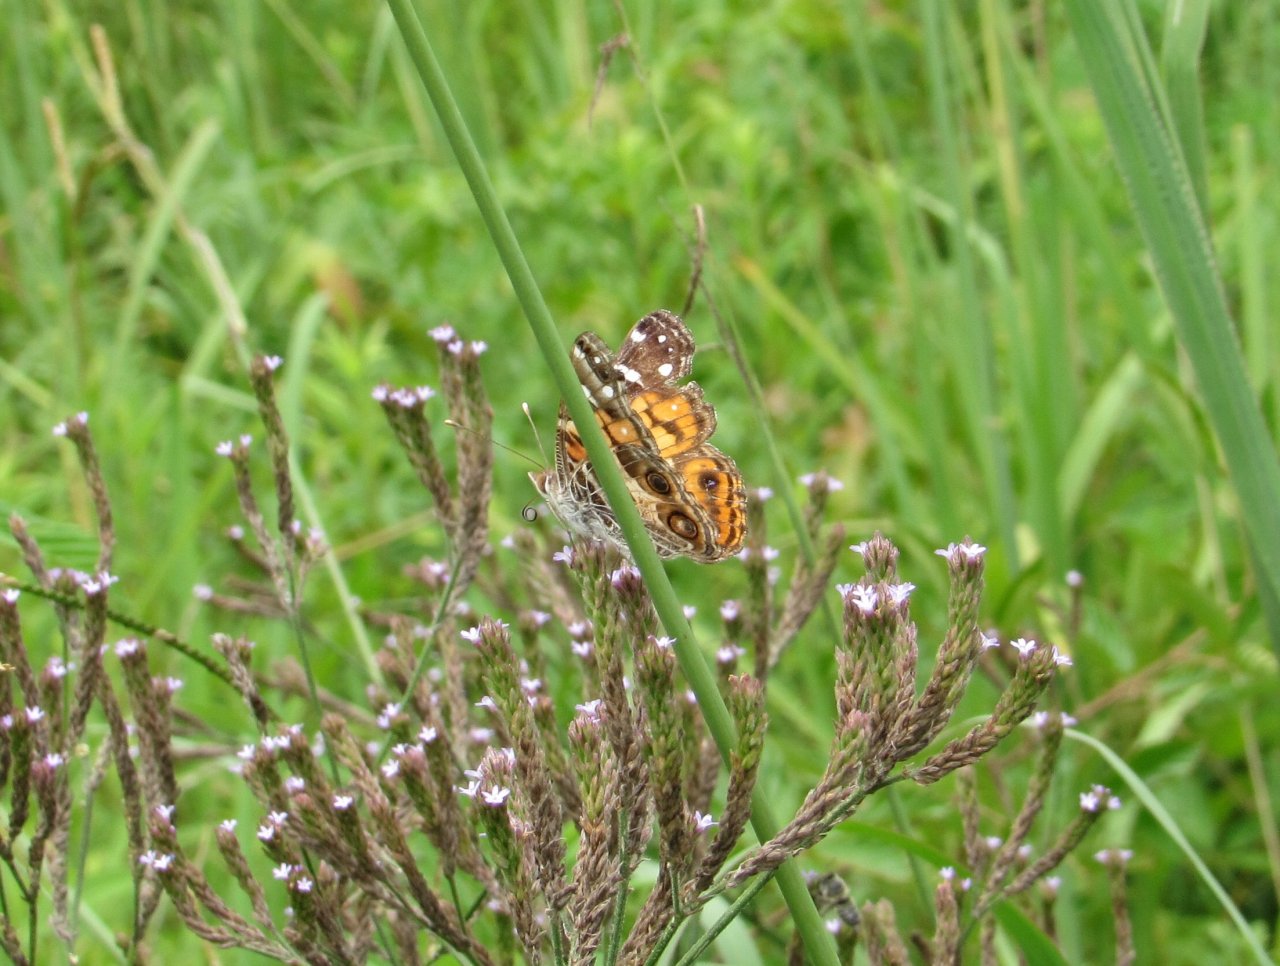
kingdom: Animalia
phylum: Arthropoda
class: Insecta
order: Lepidoptera
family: Nymphalidae
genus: Vanessa
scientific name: Vanessa virginiensis
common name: American Lady
